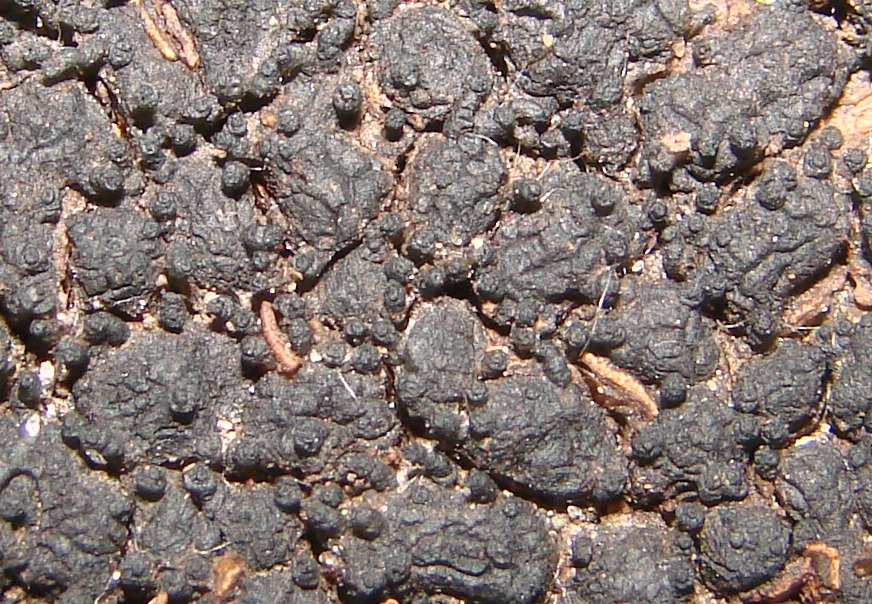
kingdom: Fungi
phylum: Ascomycota
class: Sordariomycetes
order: Xylariales
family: Melogrammataceae
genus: Melogramma
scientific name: Melogramma spiniferum
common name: bøgefod-kulhals
